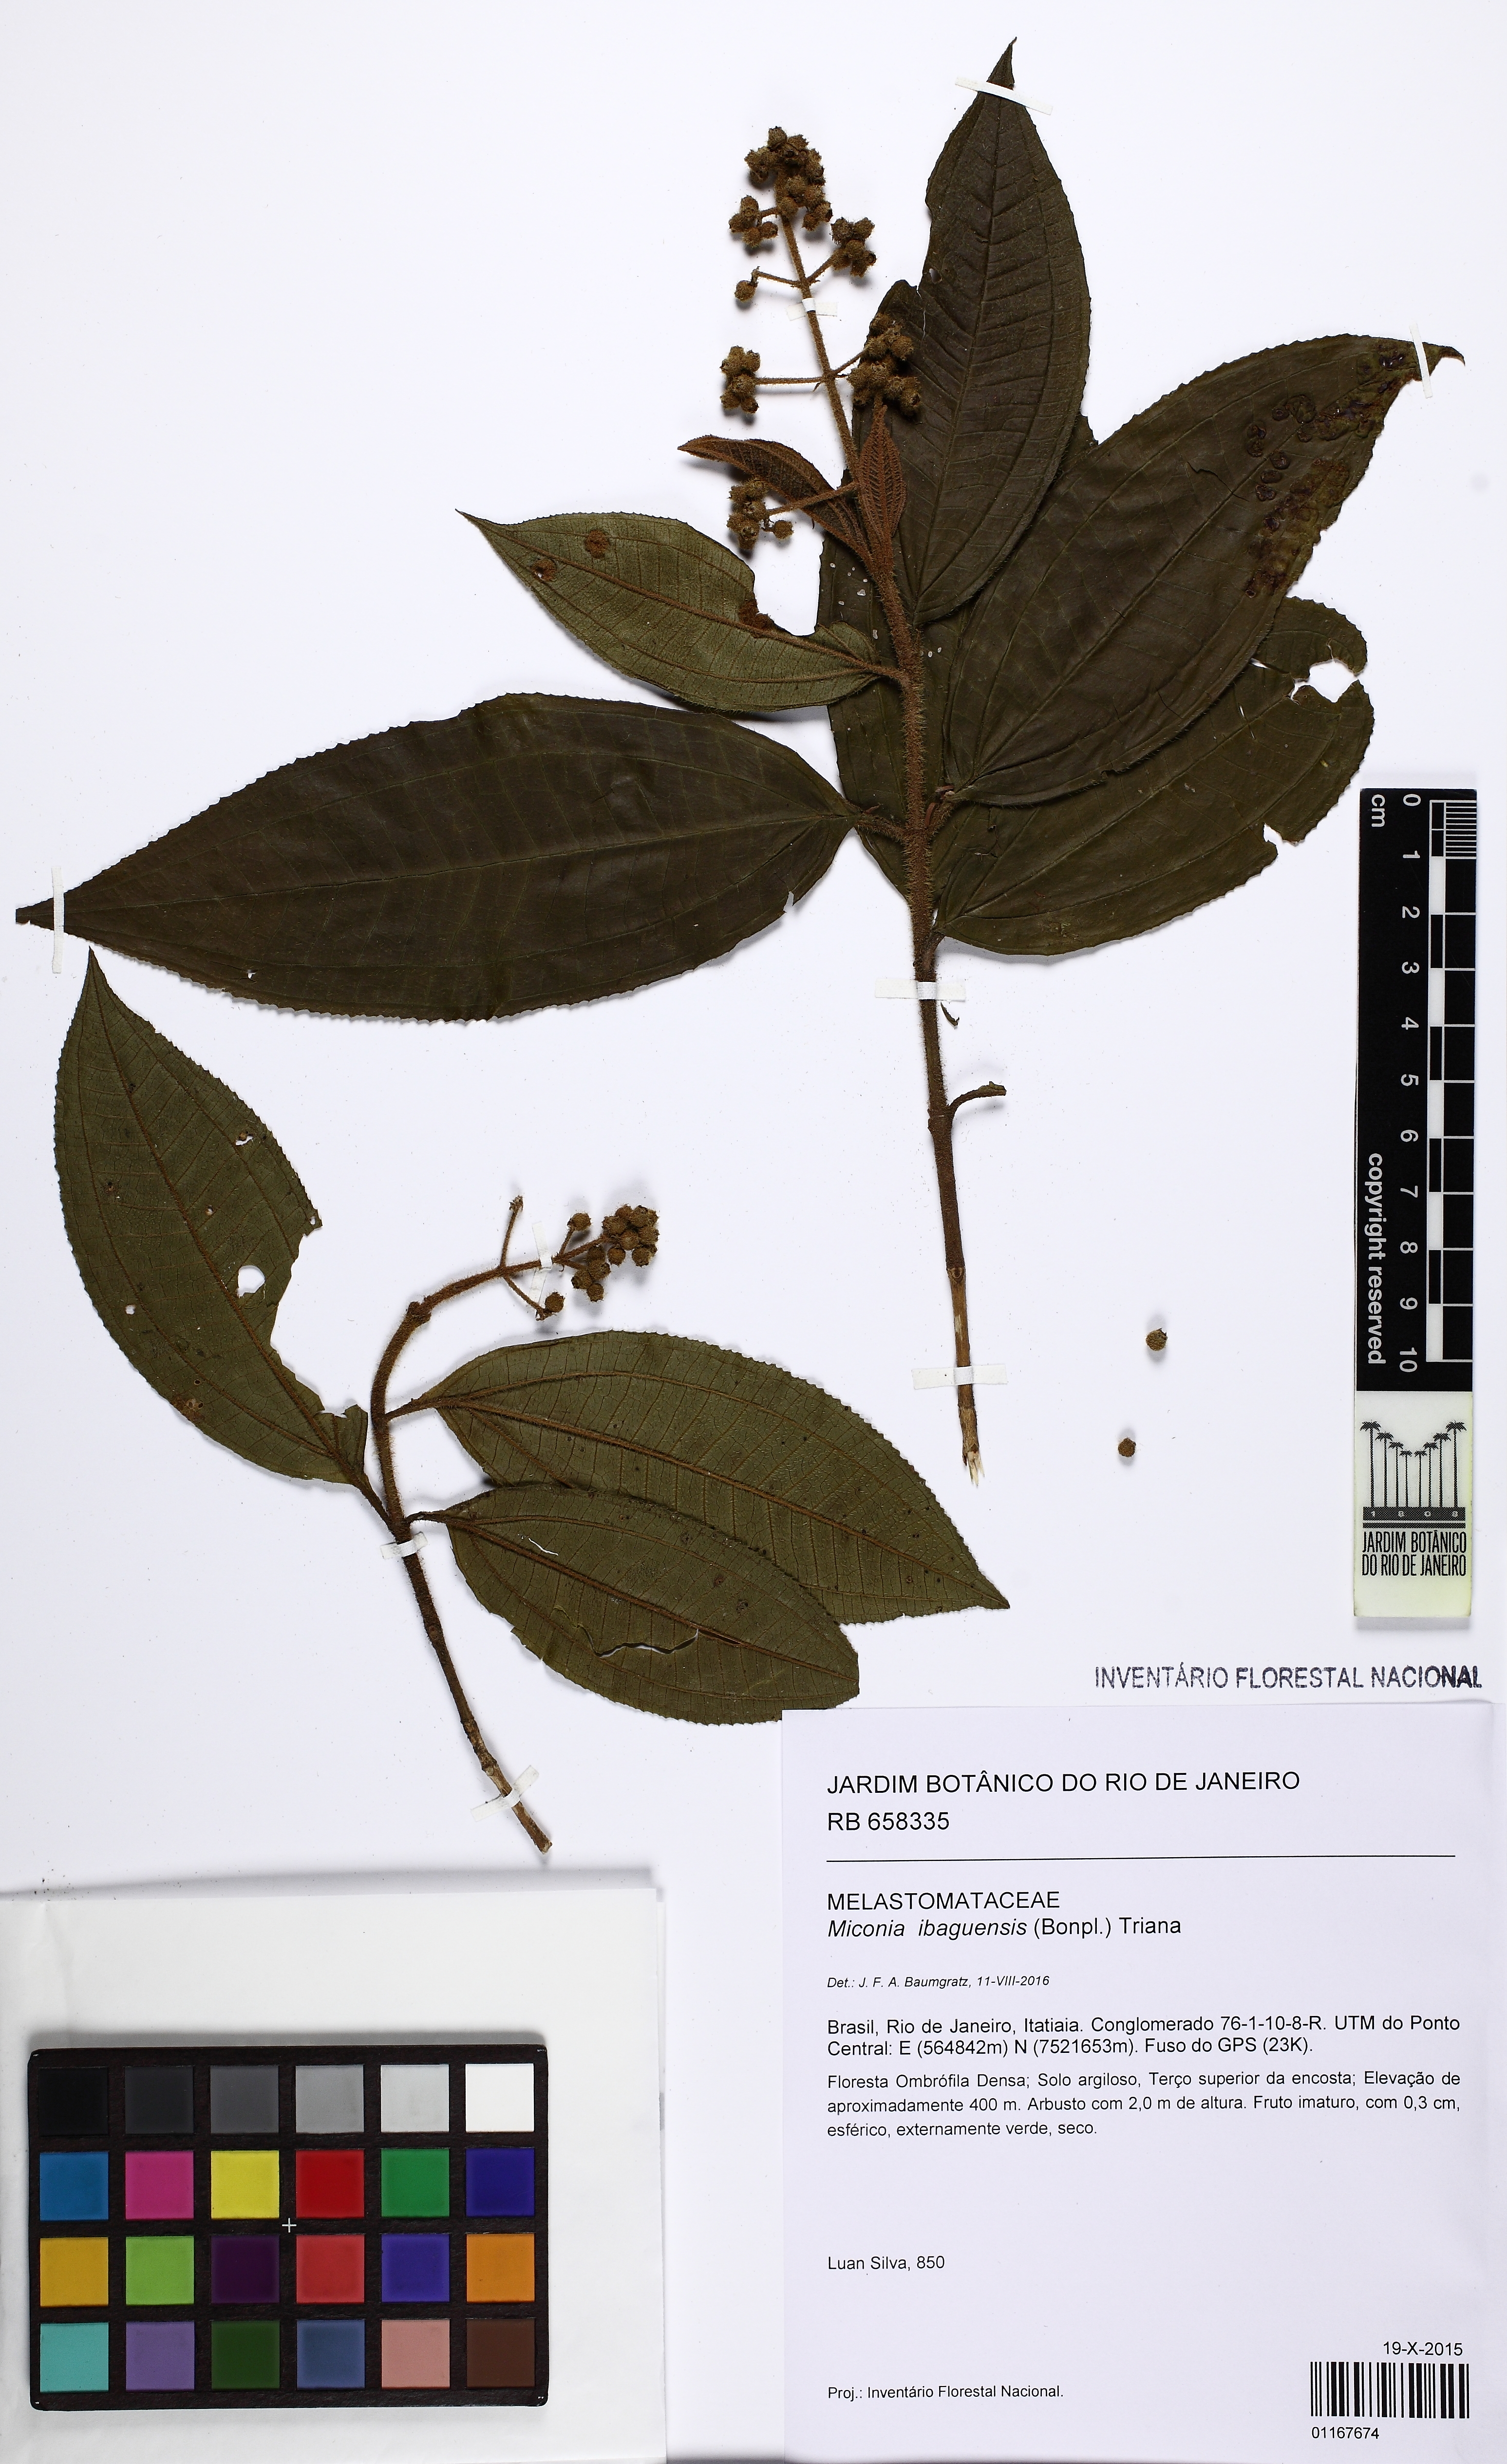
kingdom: Plantae
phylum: Tracheophyta
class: Magnoliopsida
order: Myrtales
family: Melastomataceae
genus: Miconia
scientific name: Miconia ibaguensis
